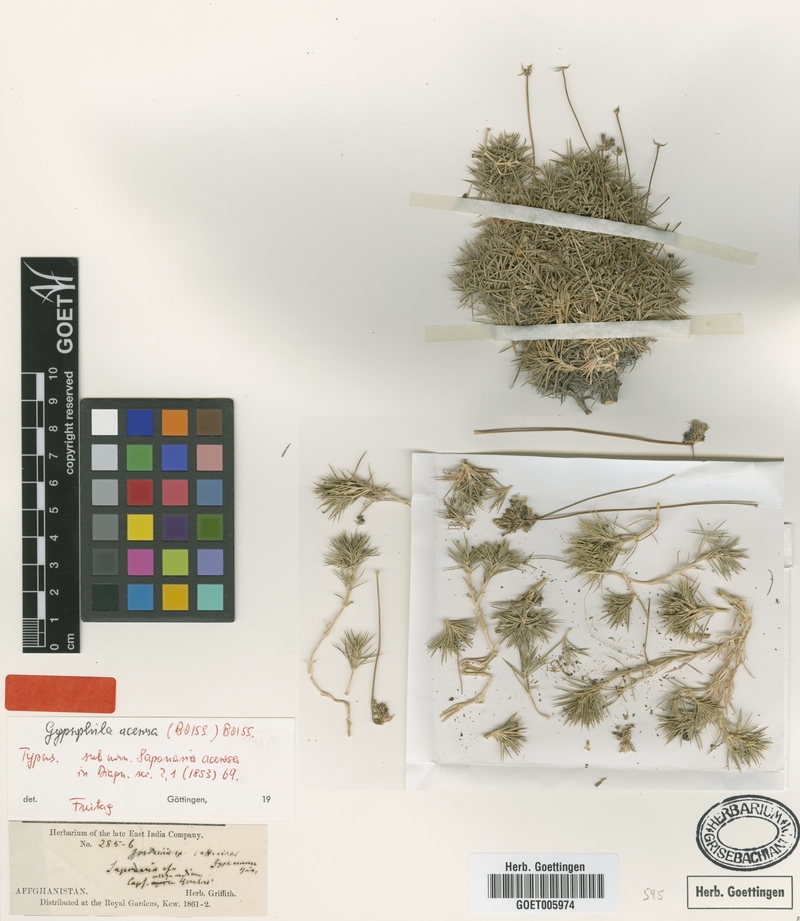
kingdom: Plantae
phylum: Tracheophyta
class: Magnoliopsida
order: Caryophyllales
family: Caryophyllaceae
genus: Acanthophyllum
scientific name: Acanthophyllum andarabicum
